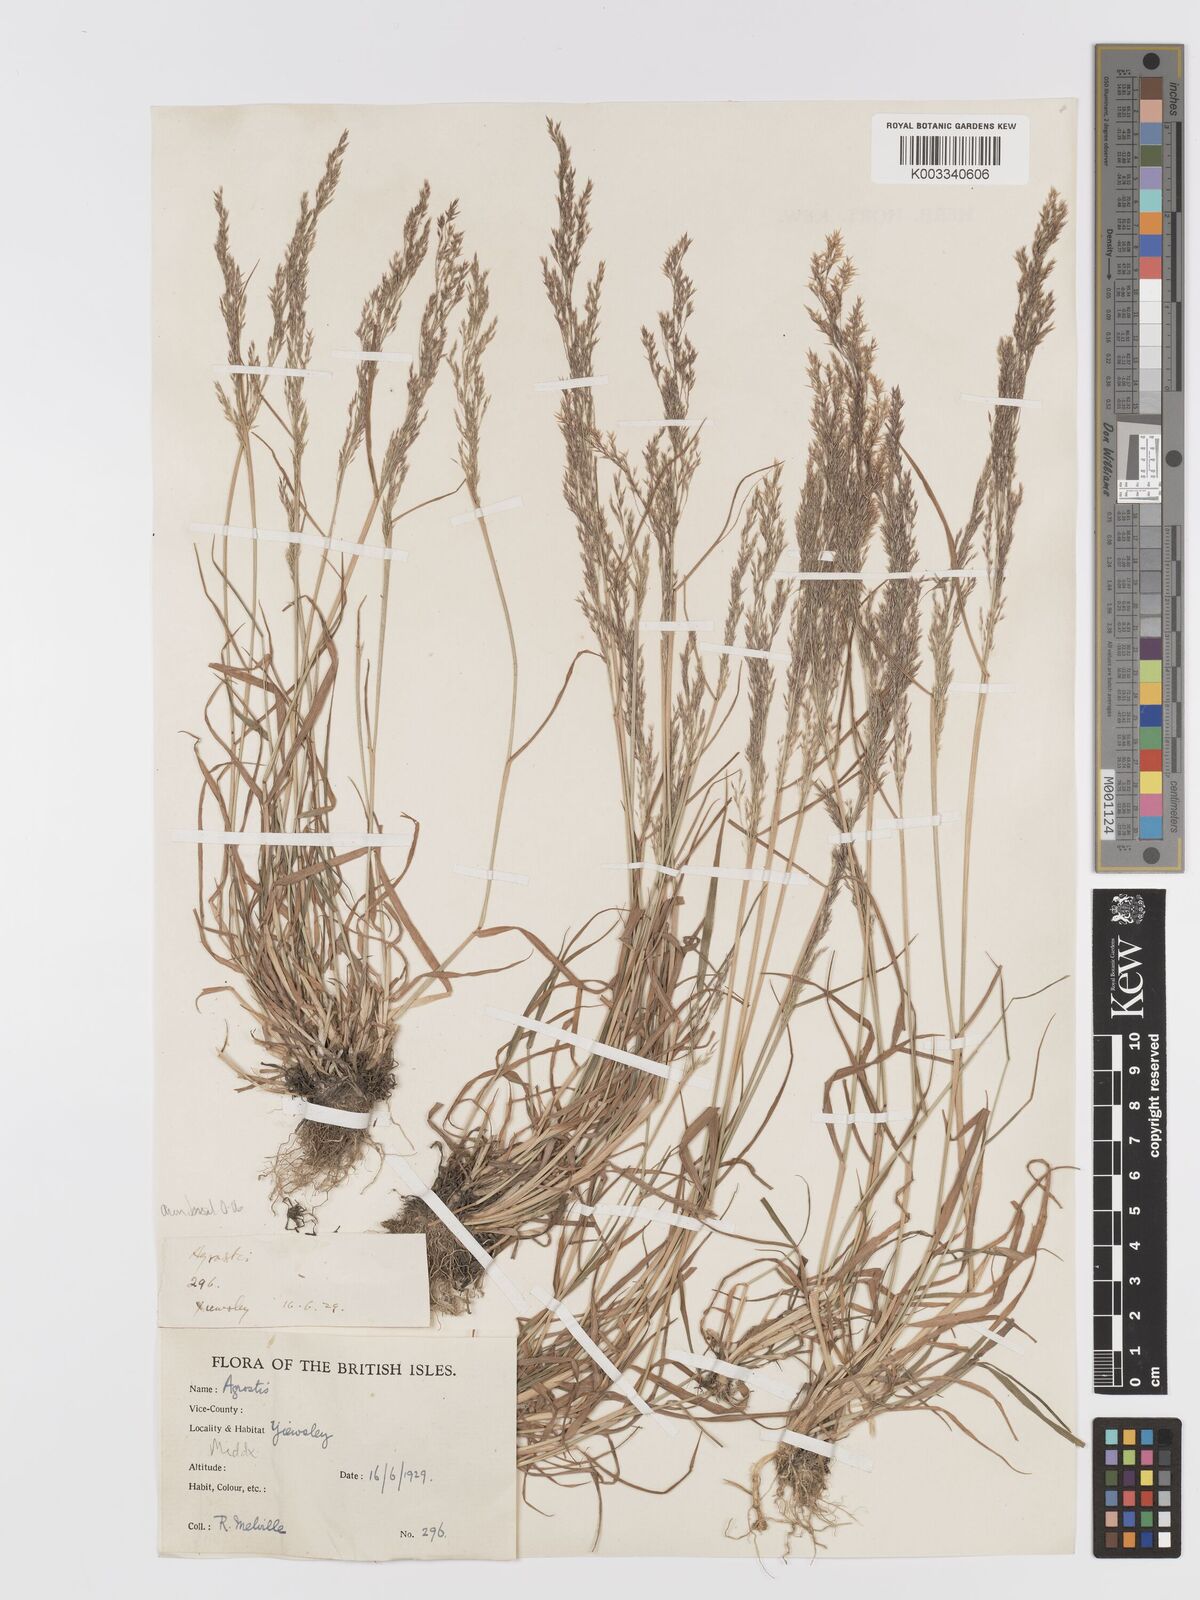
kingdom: Plantae
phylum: Tracheophyta
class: Liliopsida
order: Poales
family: Poaceae
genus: Agrostis
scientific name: Agrostis capillaris
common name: Colonial bentgrass
